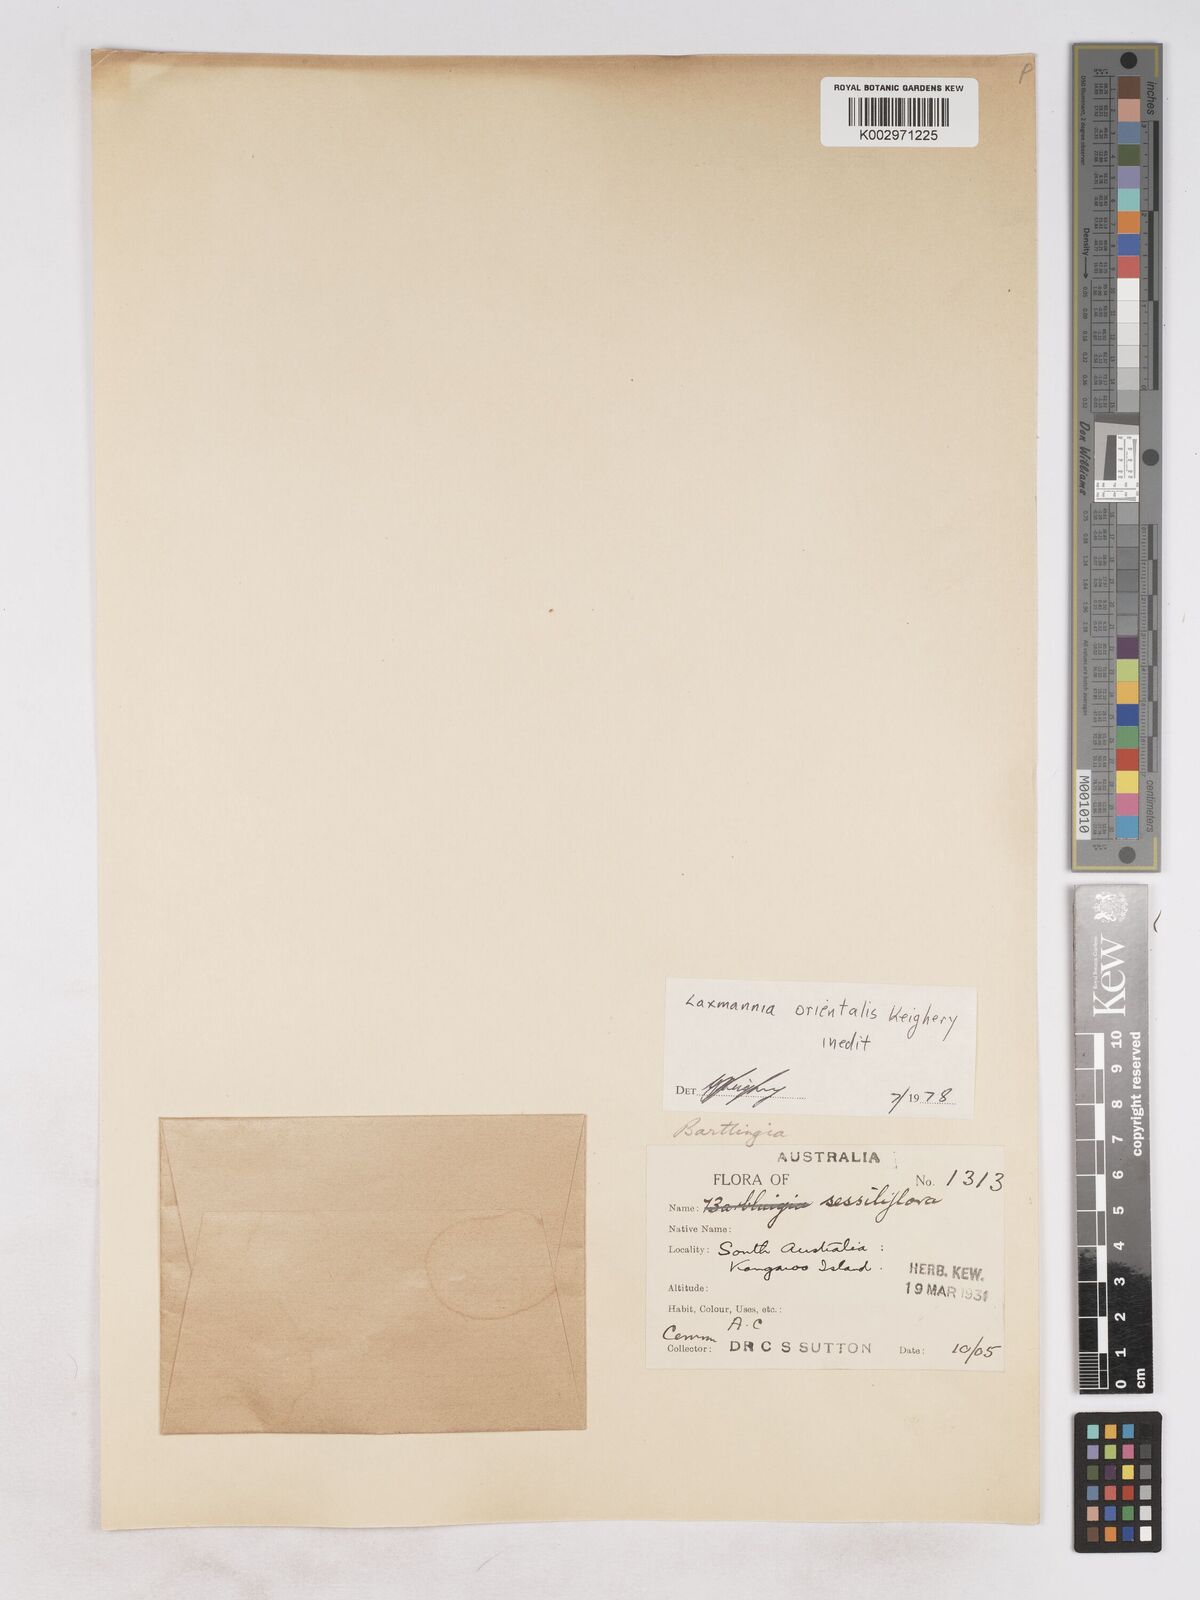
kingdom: Plantae
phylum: Tracheophyta
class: Liliopsida
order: Asparagales
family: Asparagaceae
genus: Laxmannia
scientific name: Laxmannia orientalis
